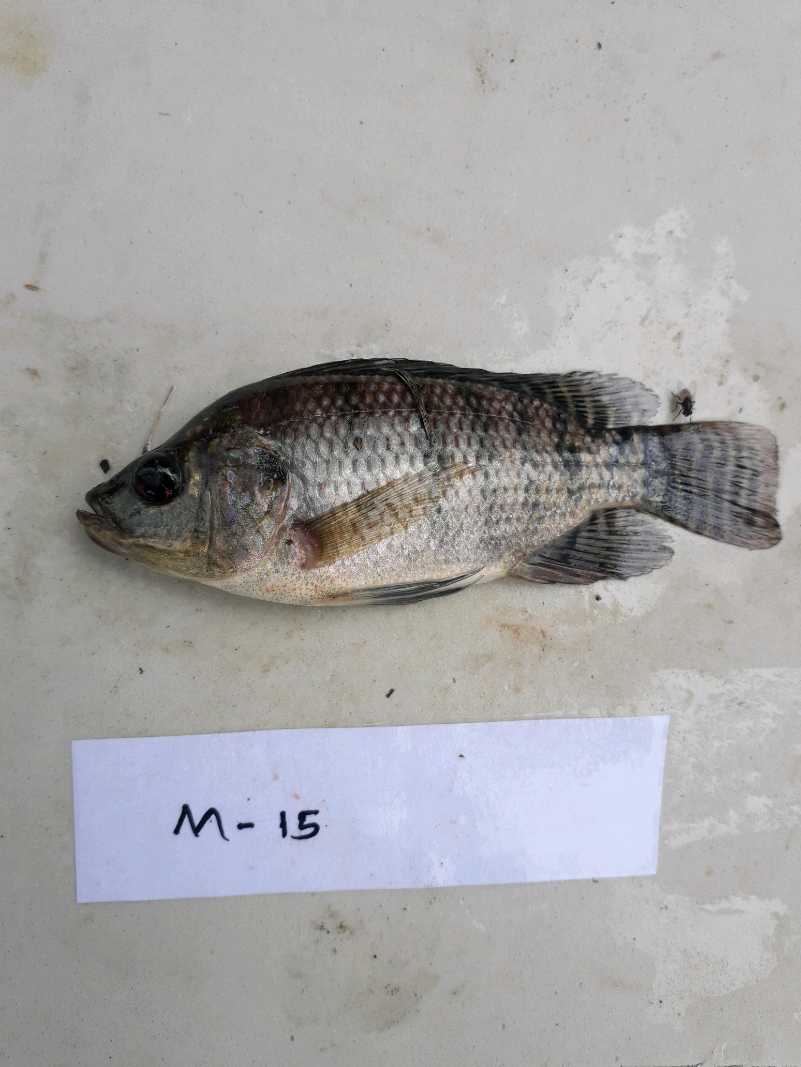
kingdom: Animalia
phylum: Chordata
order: Perciformes
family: Cichlidae
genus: Oreochromis
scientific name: Oreochromis niloticus
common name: Nile tilapia
